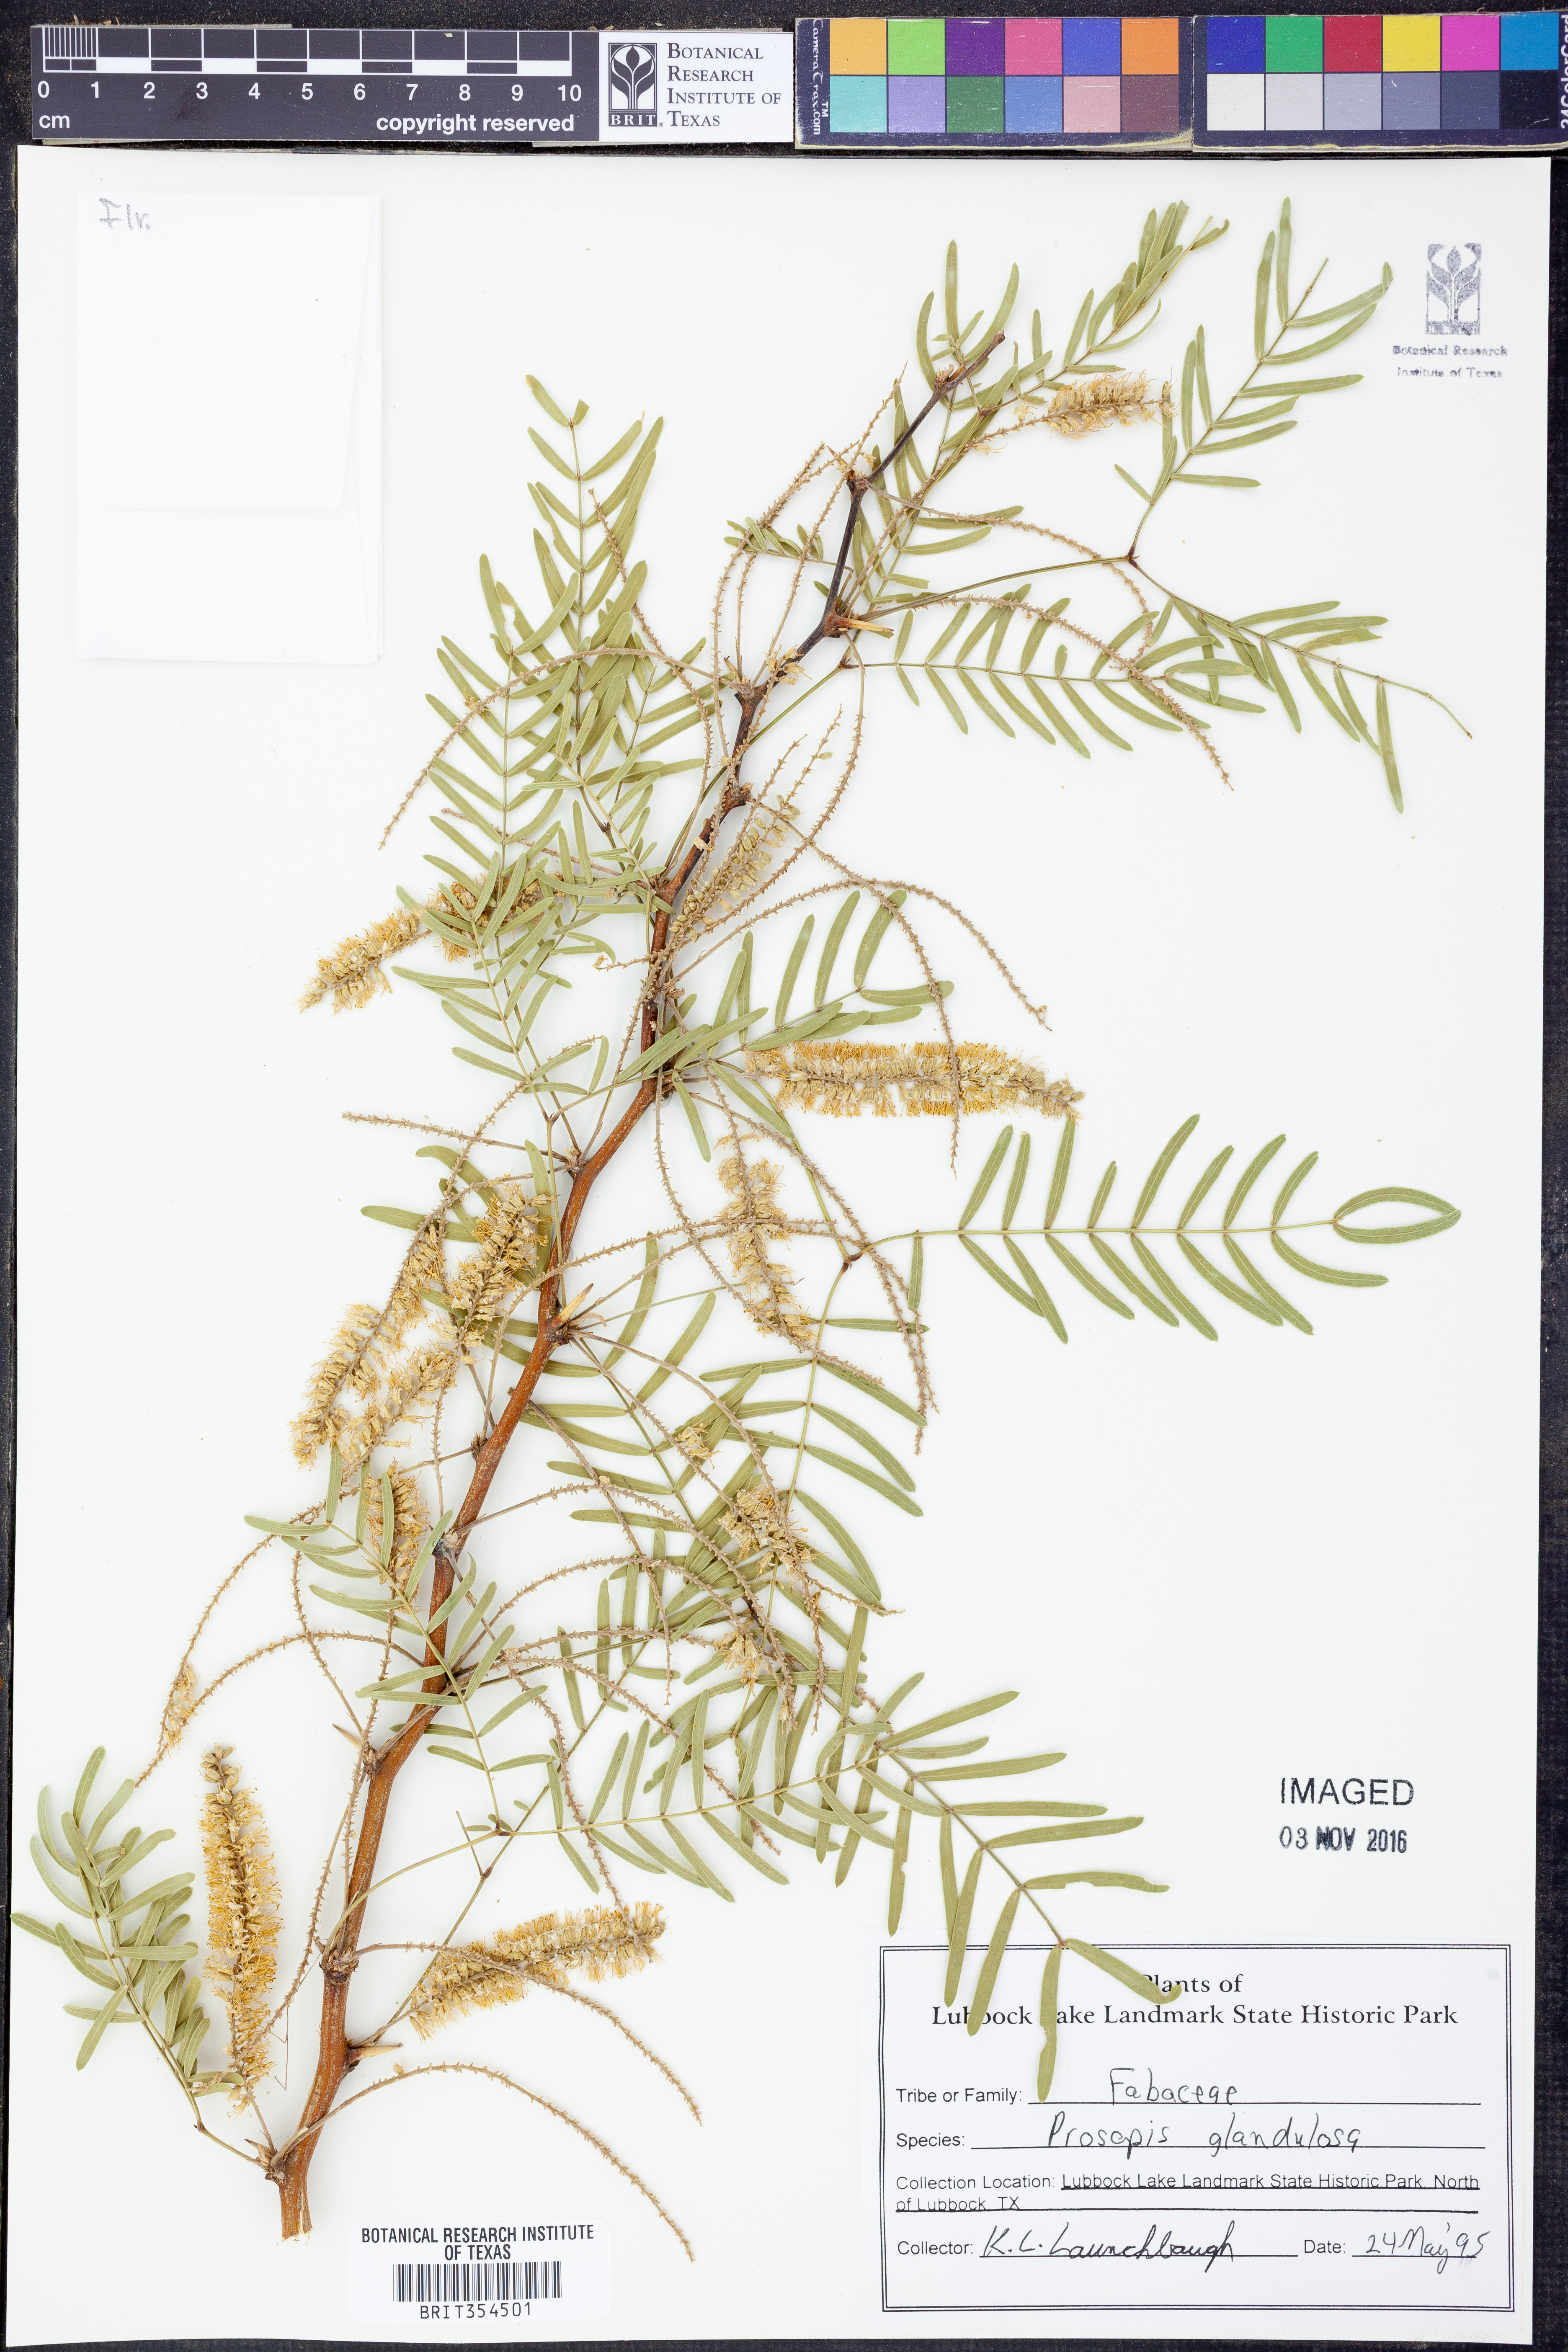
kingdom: Plantae
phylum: Tracheophyta
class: Magnoliopsida
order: Fabales
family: Fabaceae
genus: Prosopis
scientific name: Prosopis glandulosa
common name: Honey mesquite
